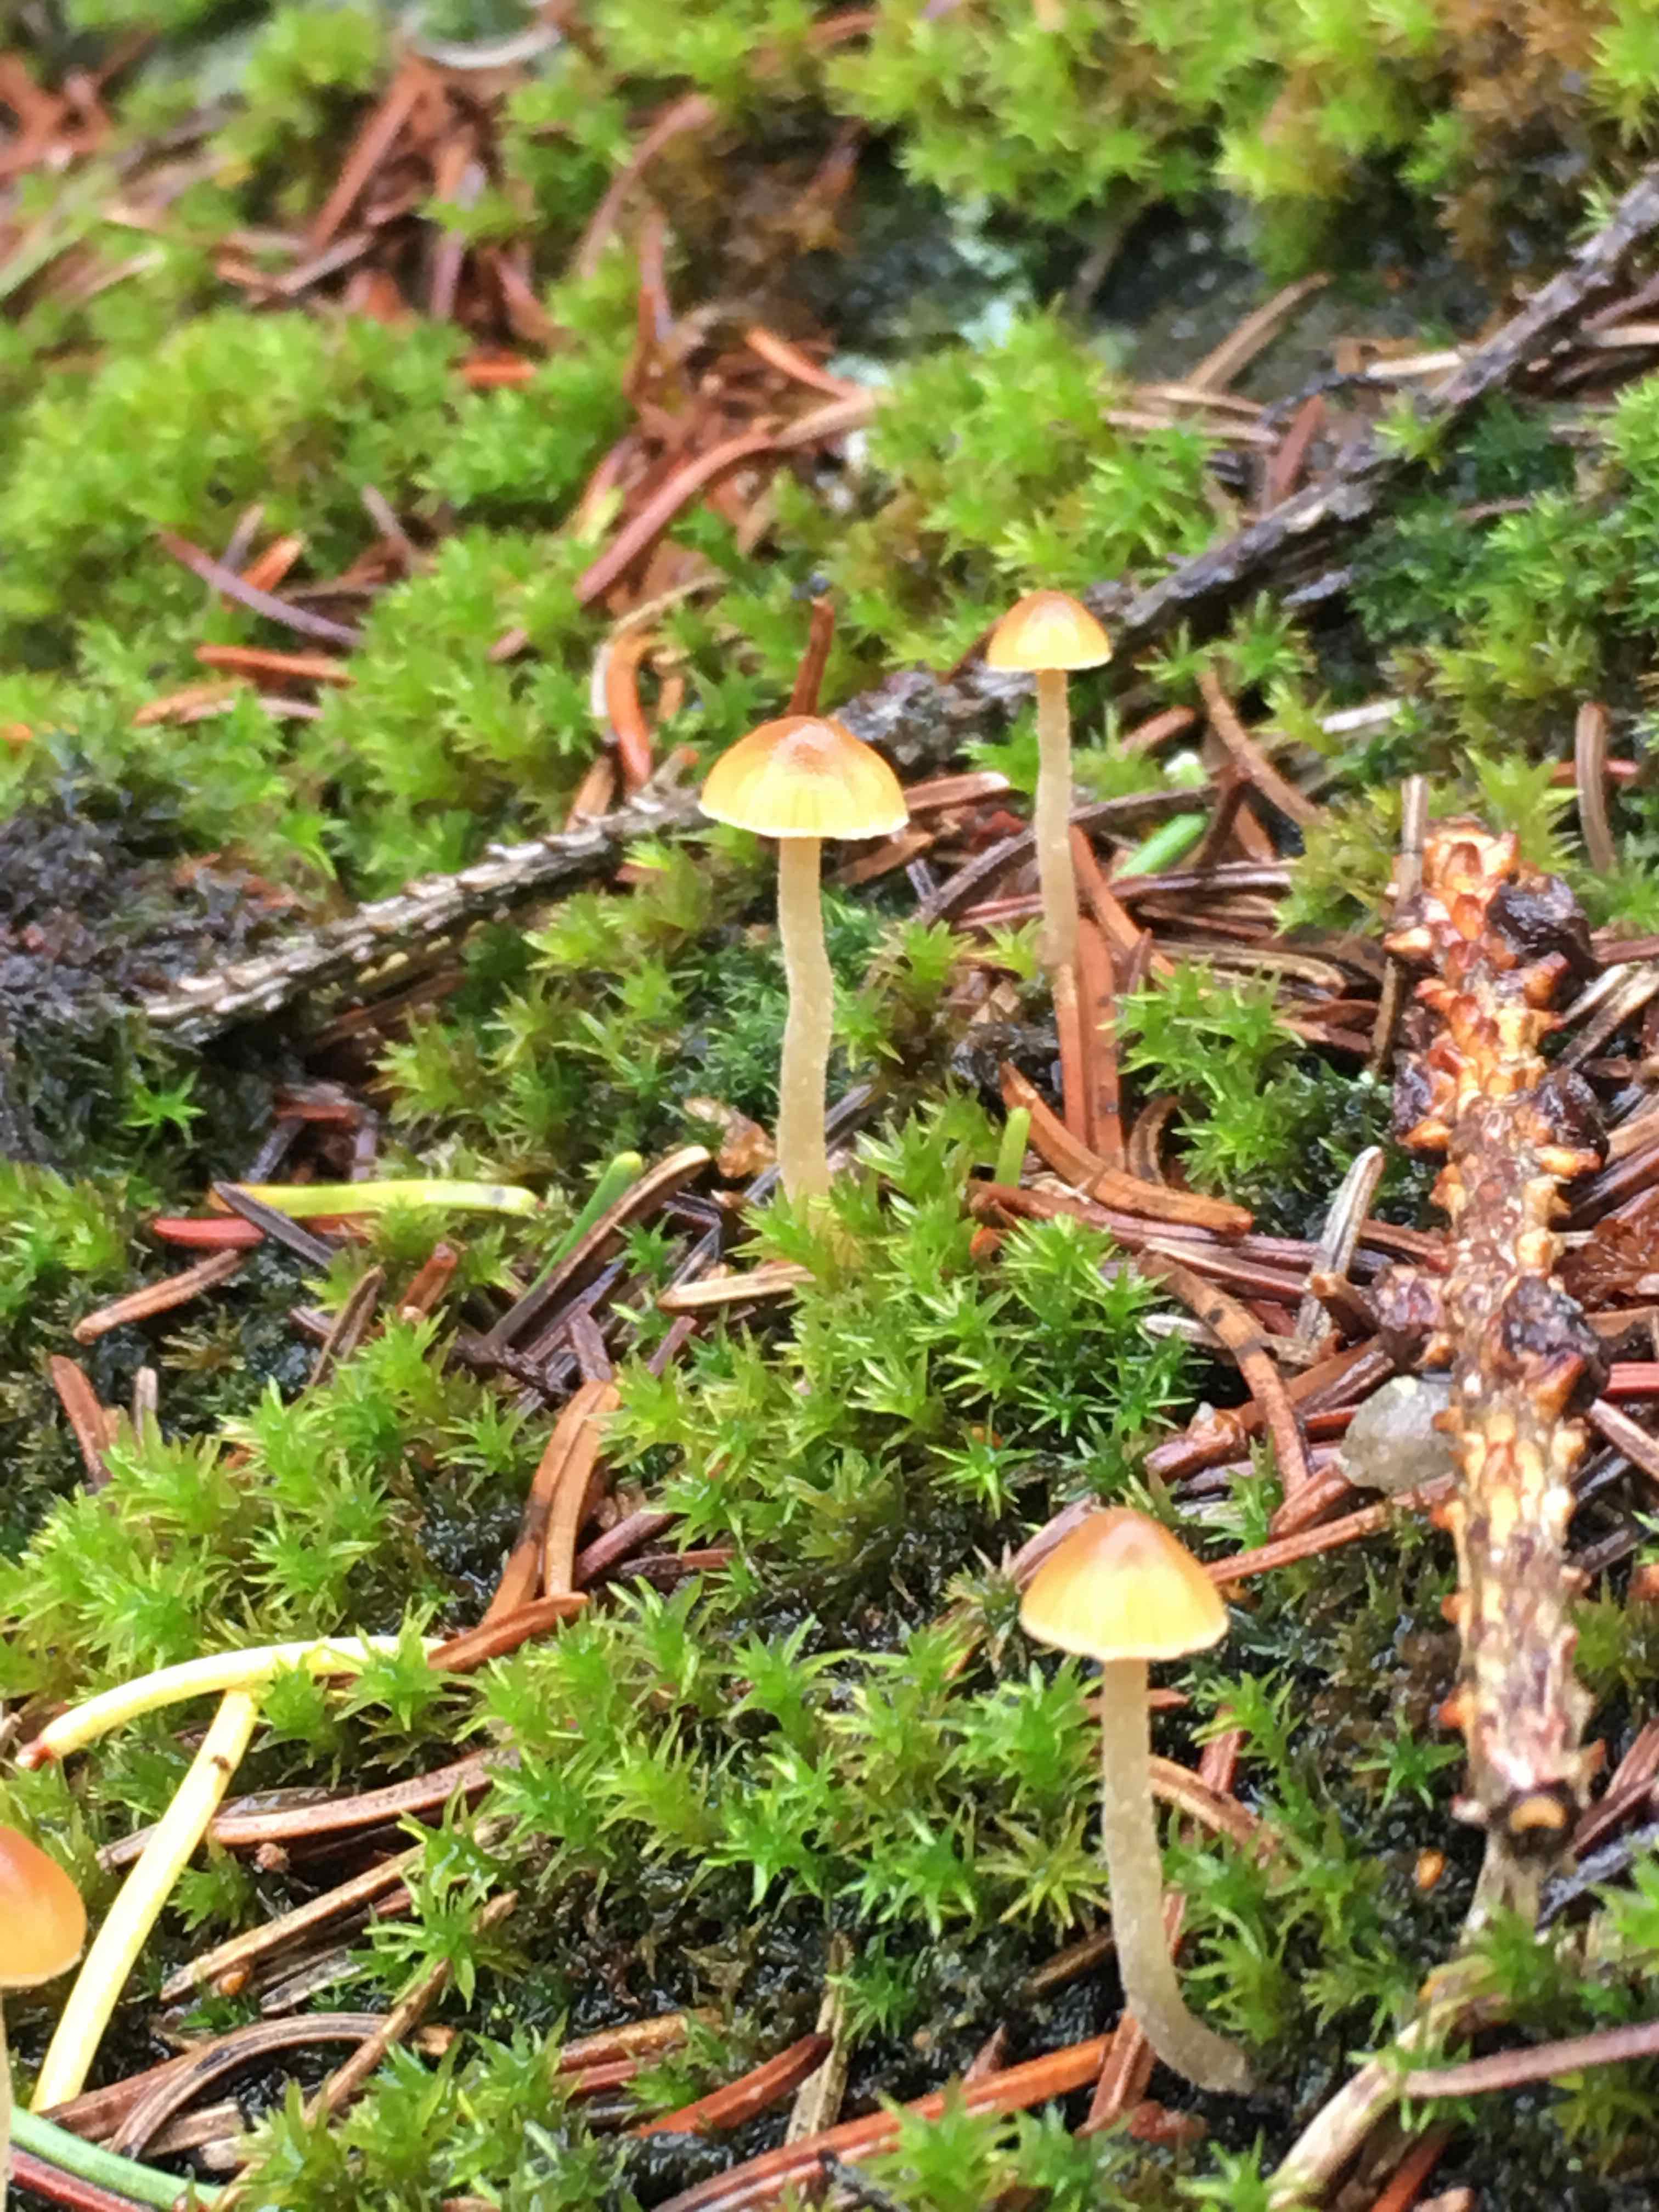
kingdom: Fungi
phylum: Basidiomycota
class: Agaricomycetes
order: Agaricales
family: Hymenogastraceae
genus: Galerina
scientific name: Galerina
